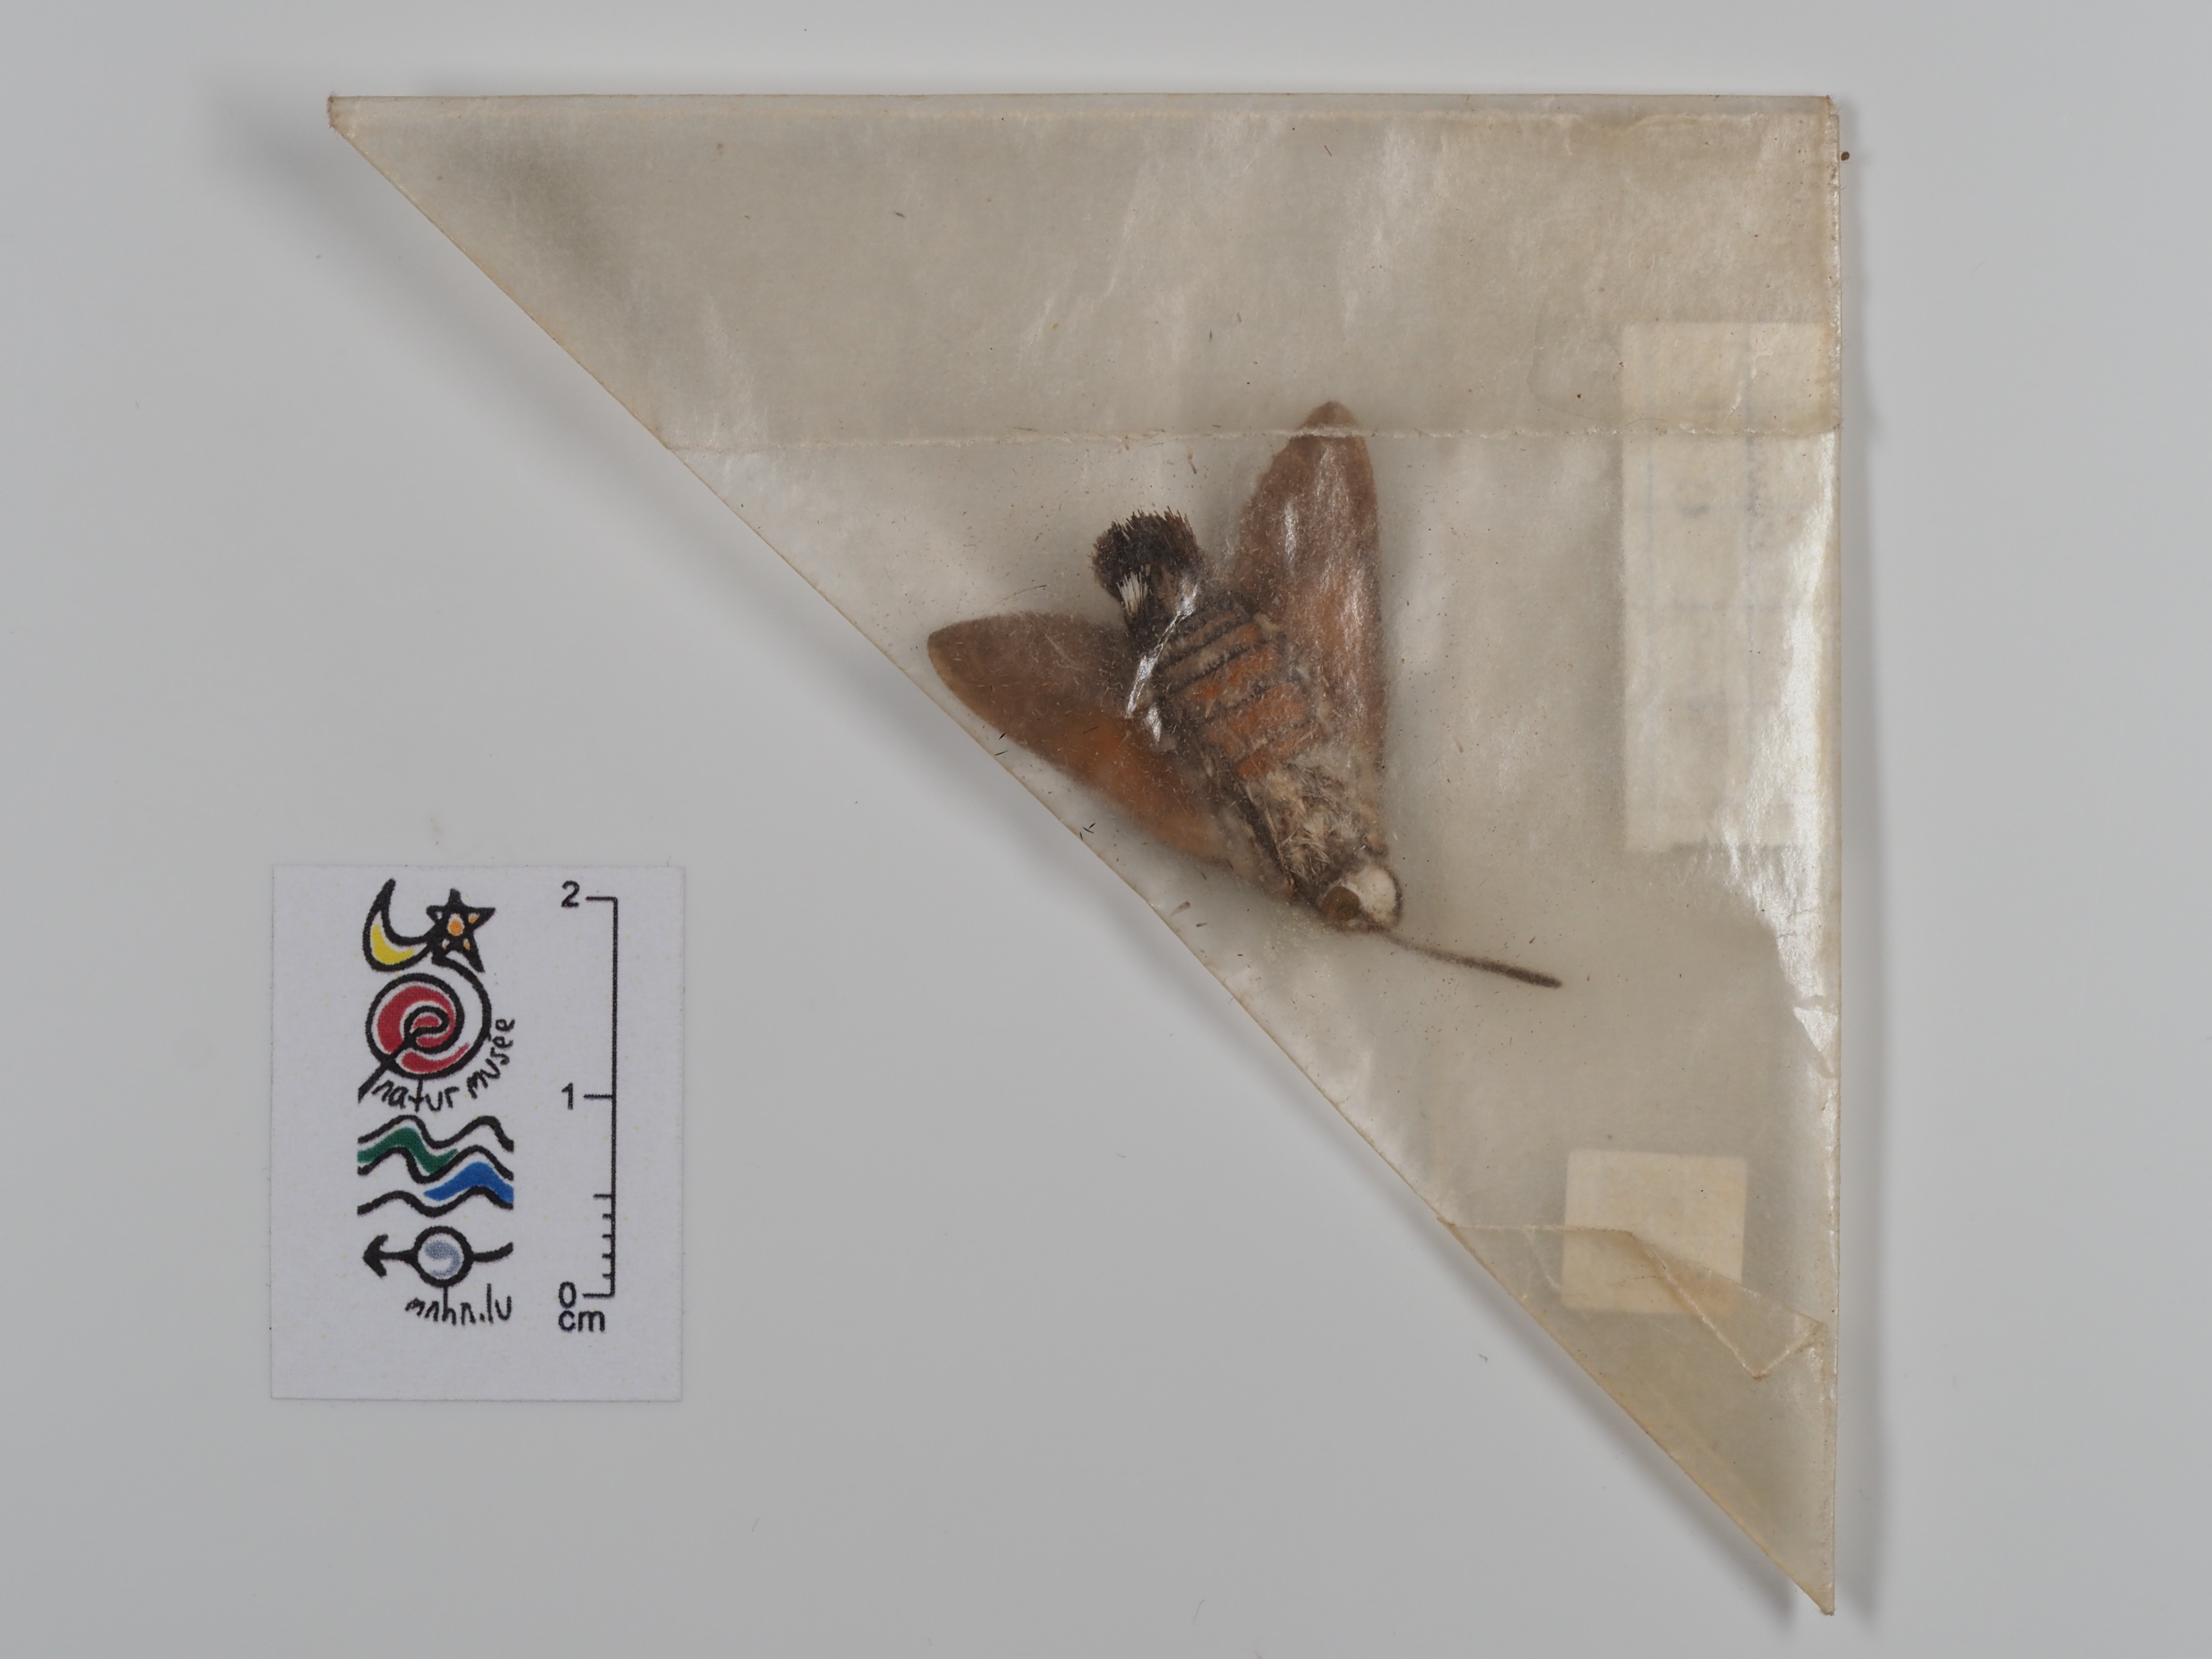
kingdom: Animalia
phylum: Arthropoda
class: Insecta
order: Lepidoptera
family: Sphingidae
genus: Macroglossum
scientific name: Macroglossum stellatarum
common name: Humming-bird hawk-moth
